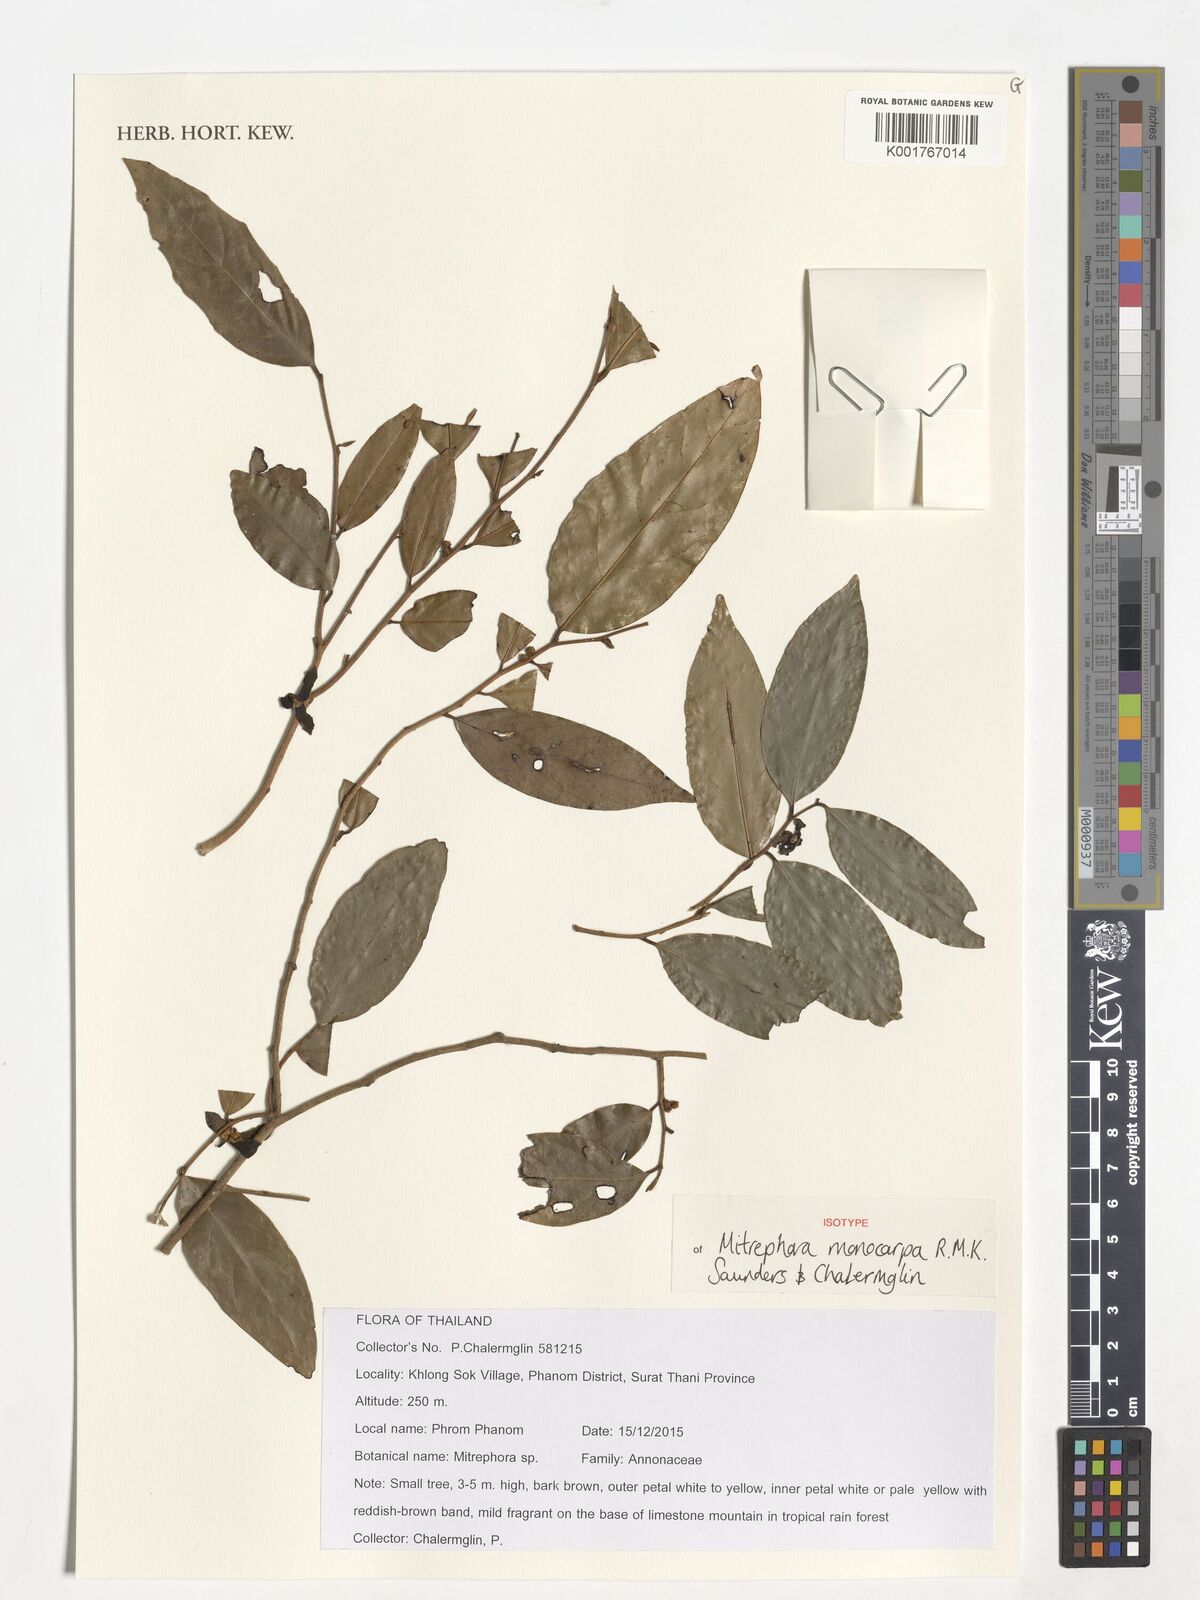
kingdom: Plantae
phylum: Tracheophyta
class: Magnoliopsida
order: Magnoliales
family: Annonaceae
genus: Mitrephora
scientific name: Mitrephora monocarpa
